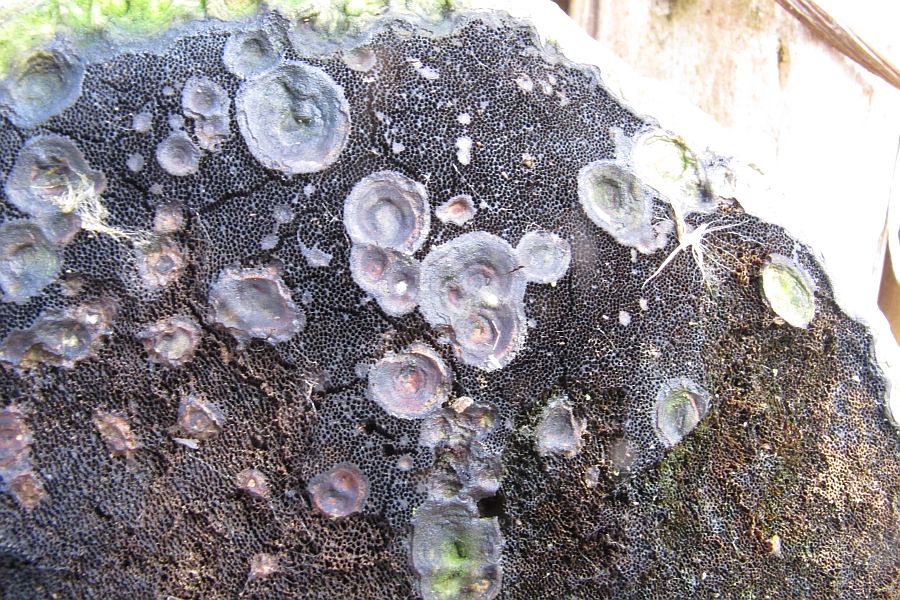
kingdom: Fungi
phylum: Basidiomycota
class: Agaricomycetes
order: Polyporales
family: Polyporaceae
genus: Fomes
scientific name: Fomes fomentarius
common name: tøndersvamp
